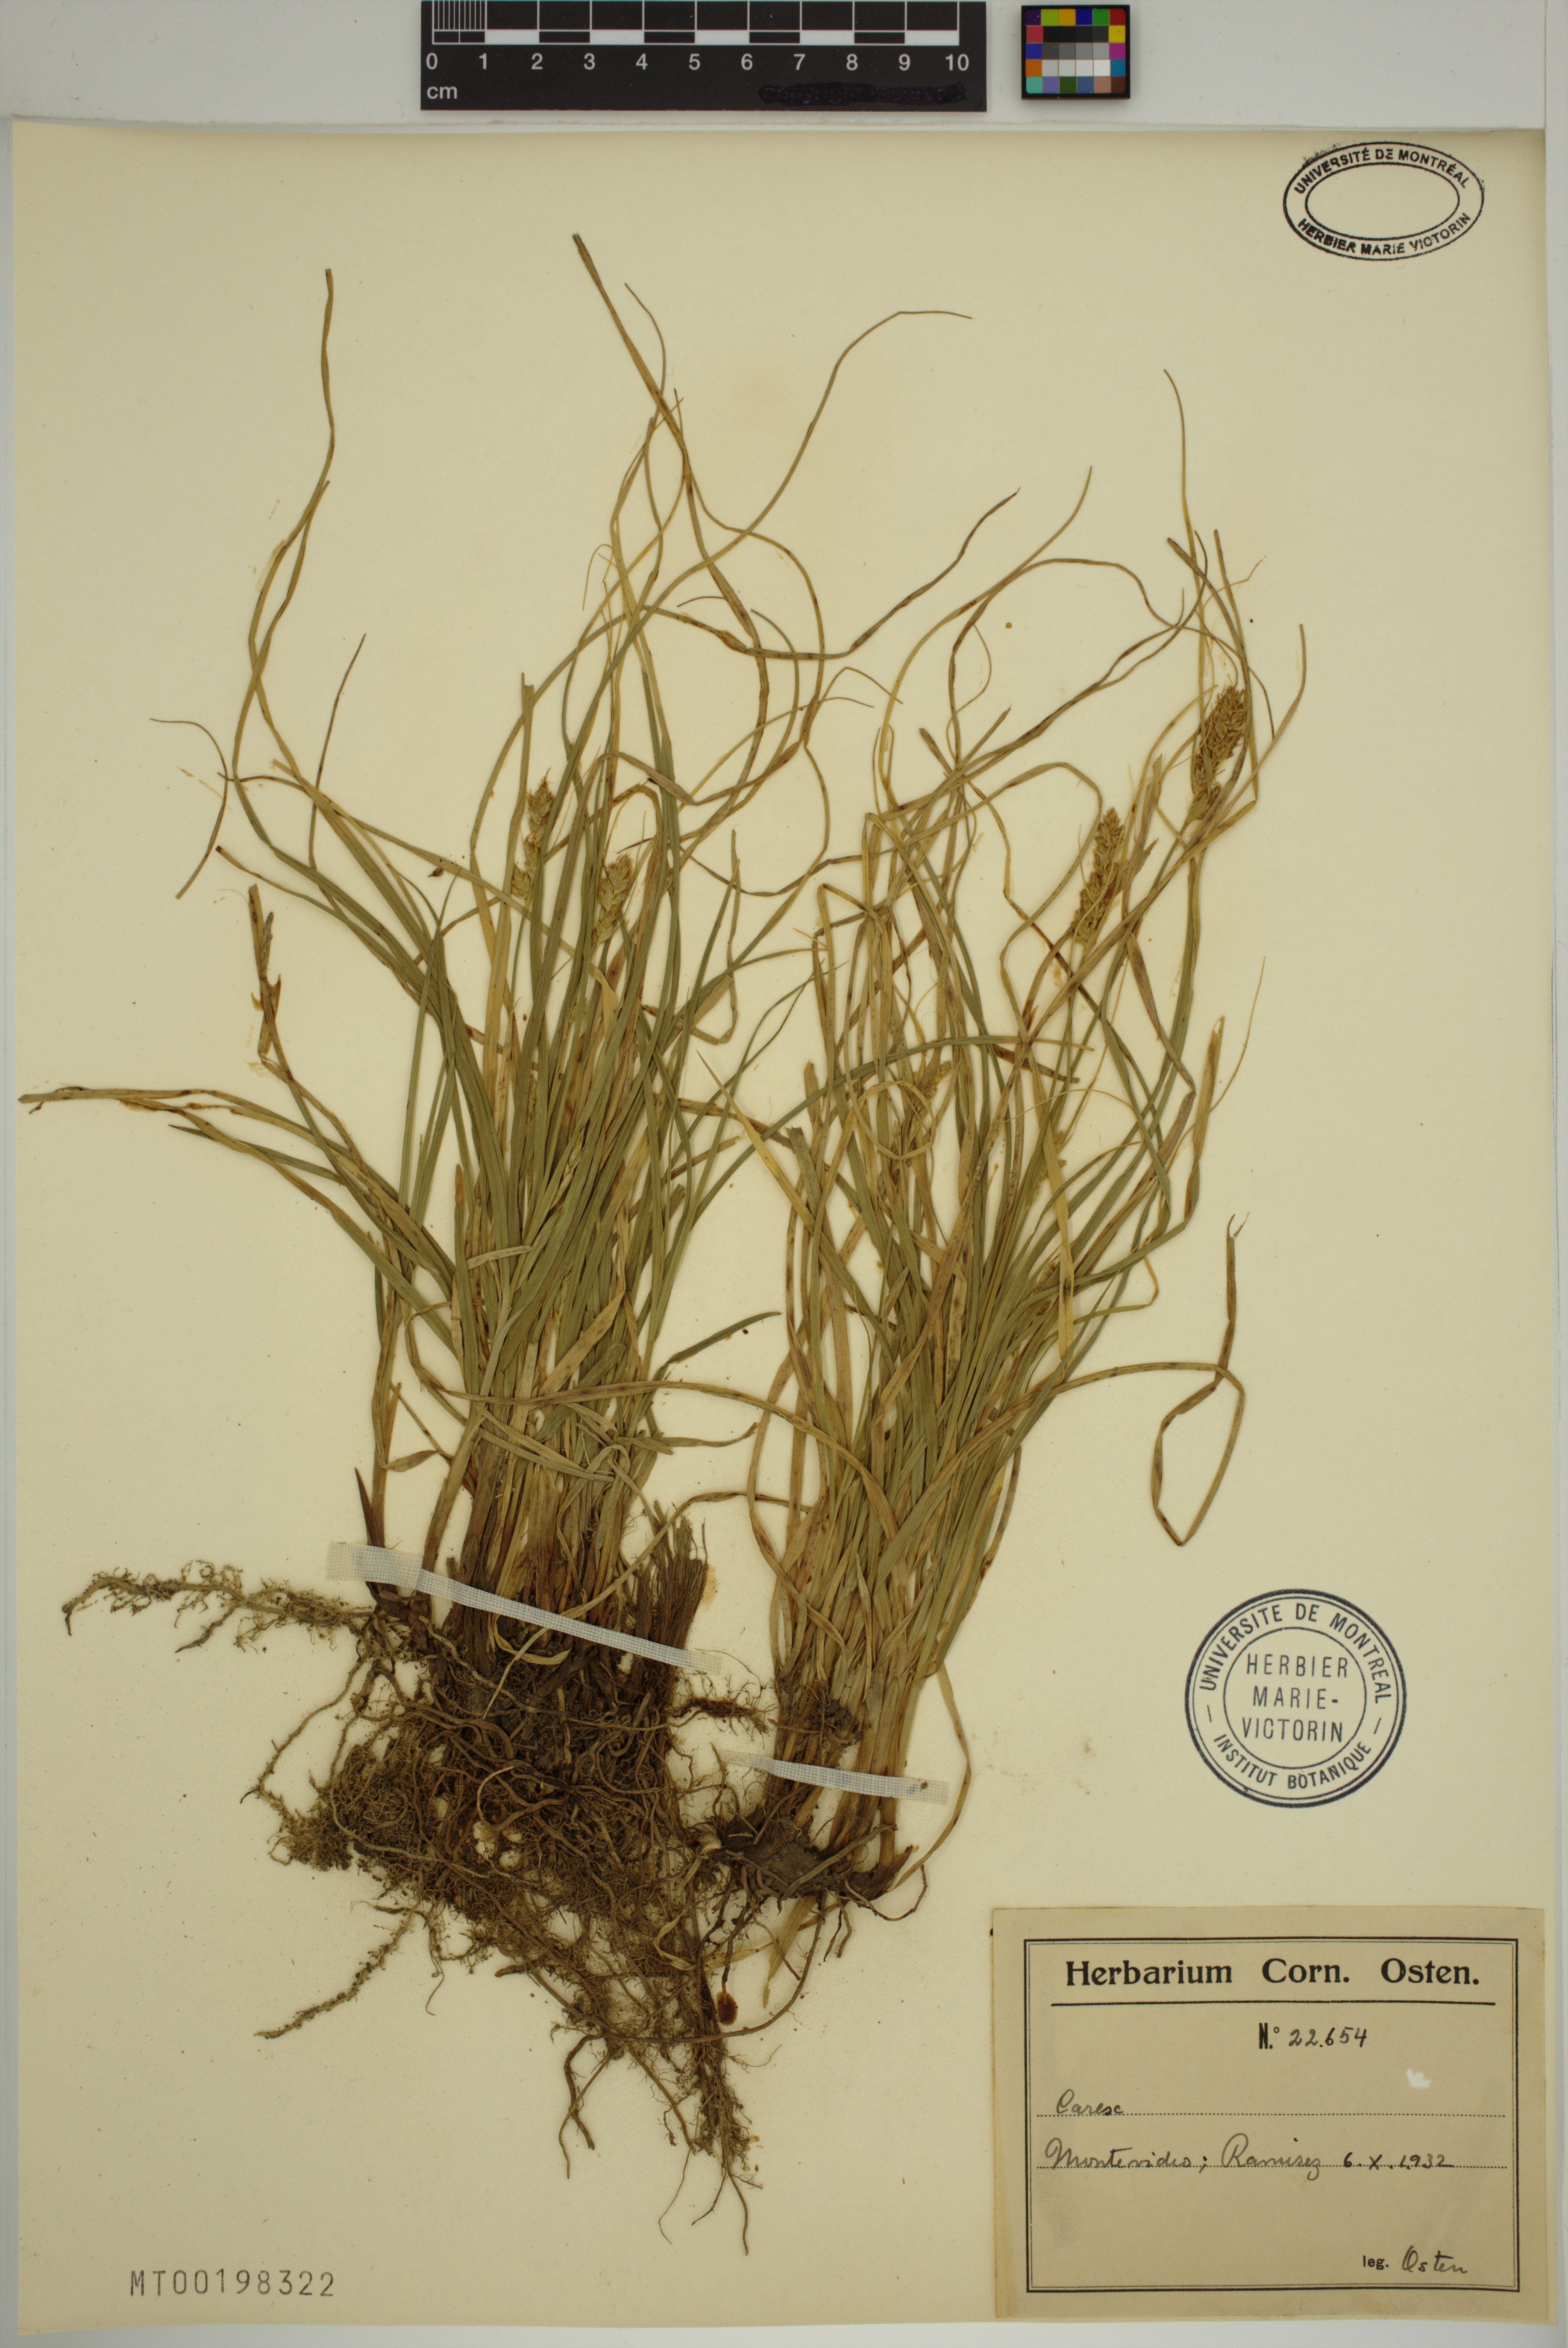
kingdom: Plantae
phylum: Tracheophyta
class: Liliopsida
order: Poales
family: Cyperaceae
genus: Carex
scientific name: Carex
